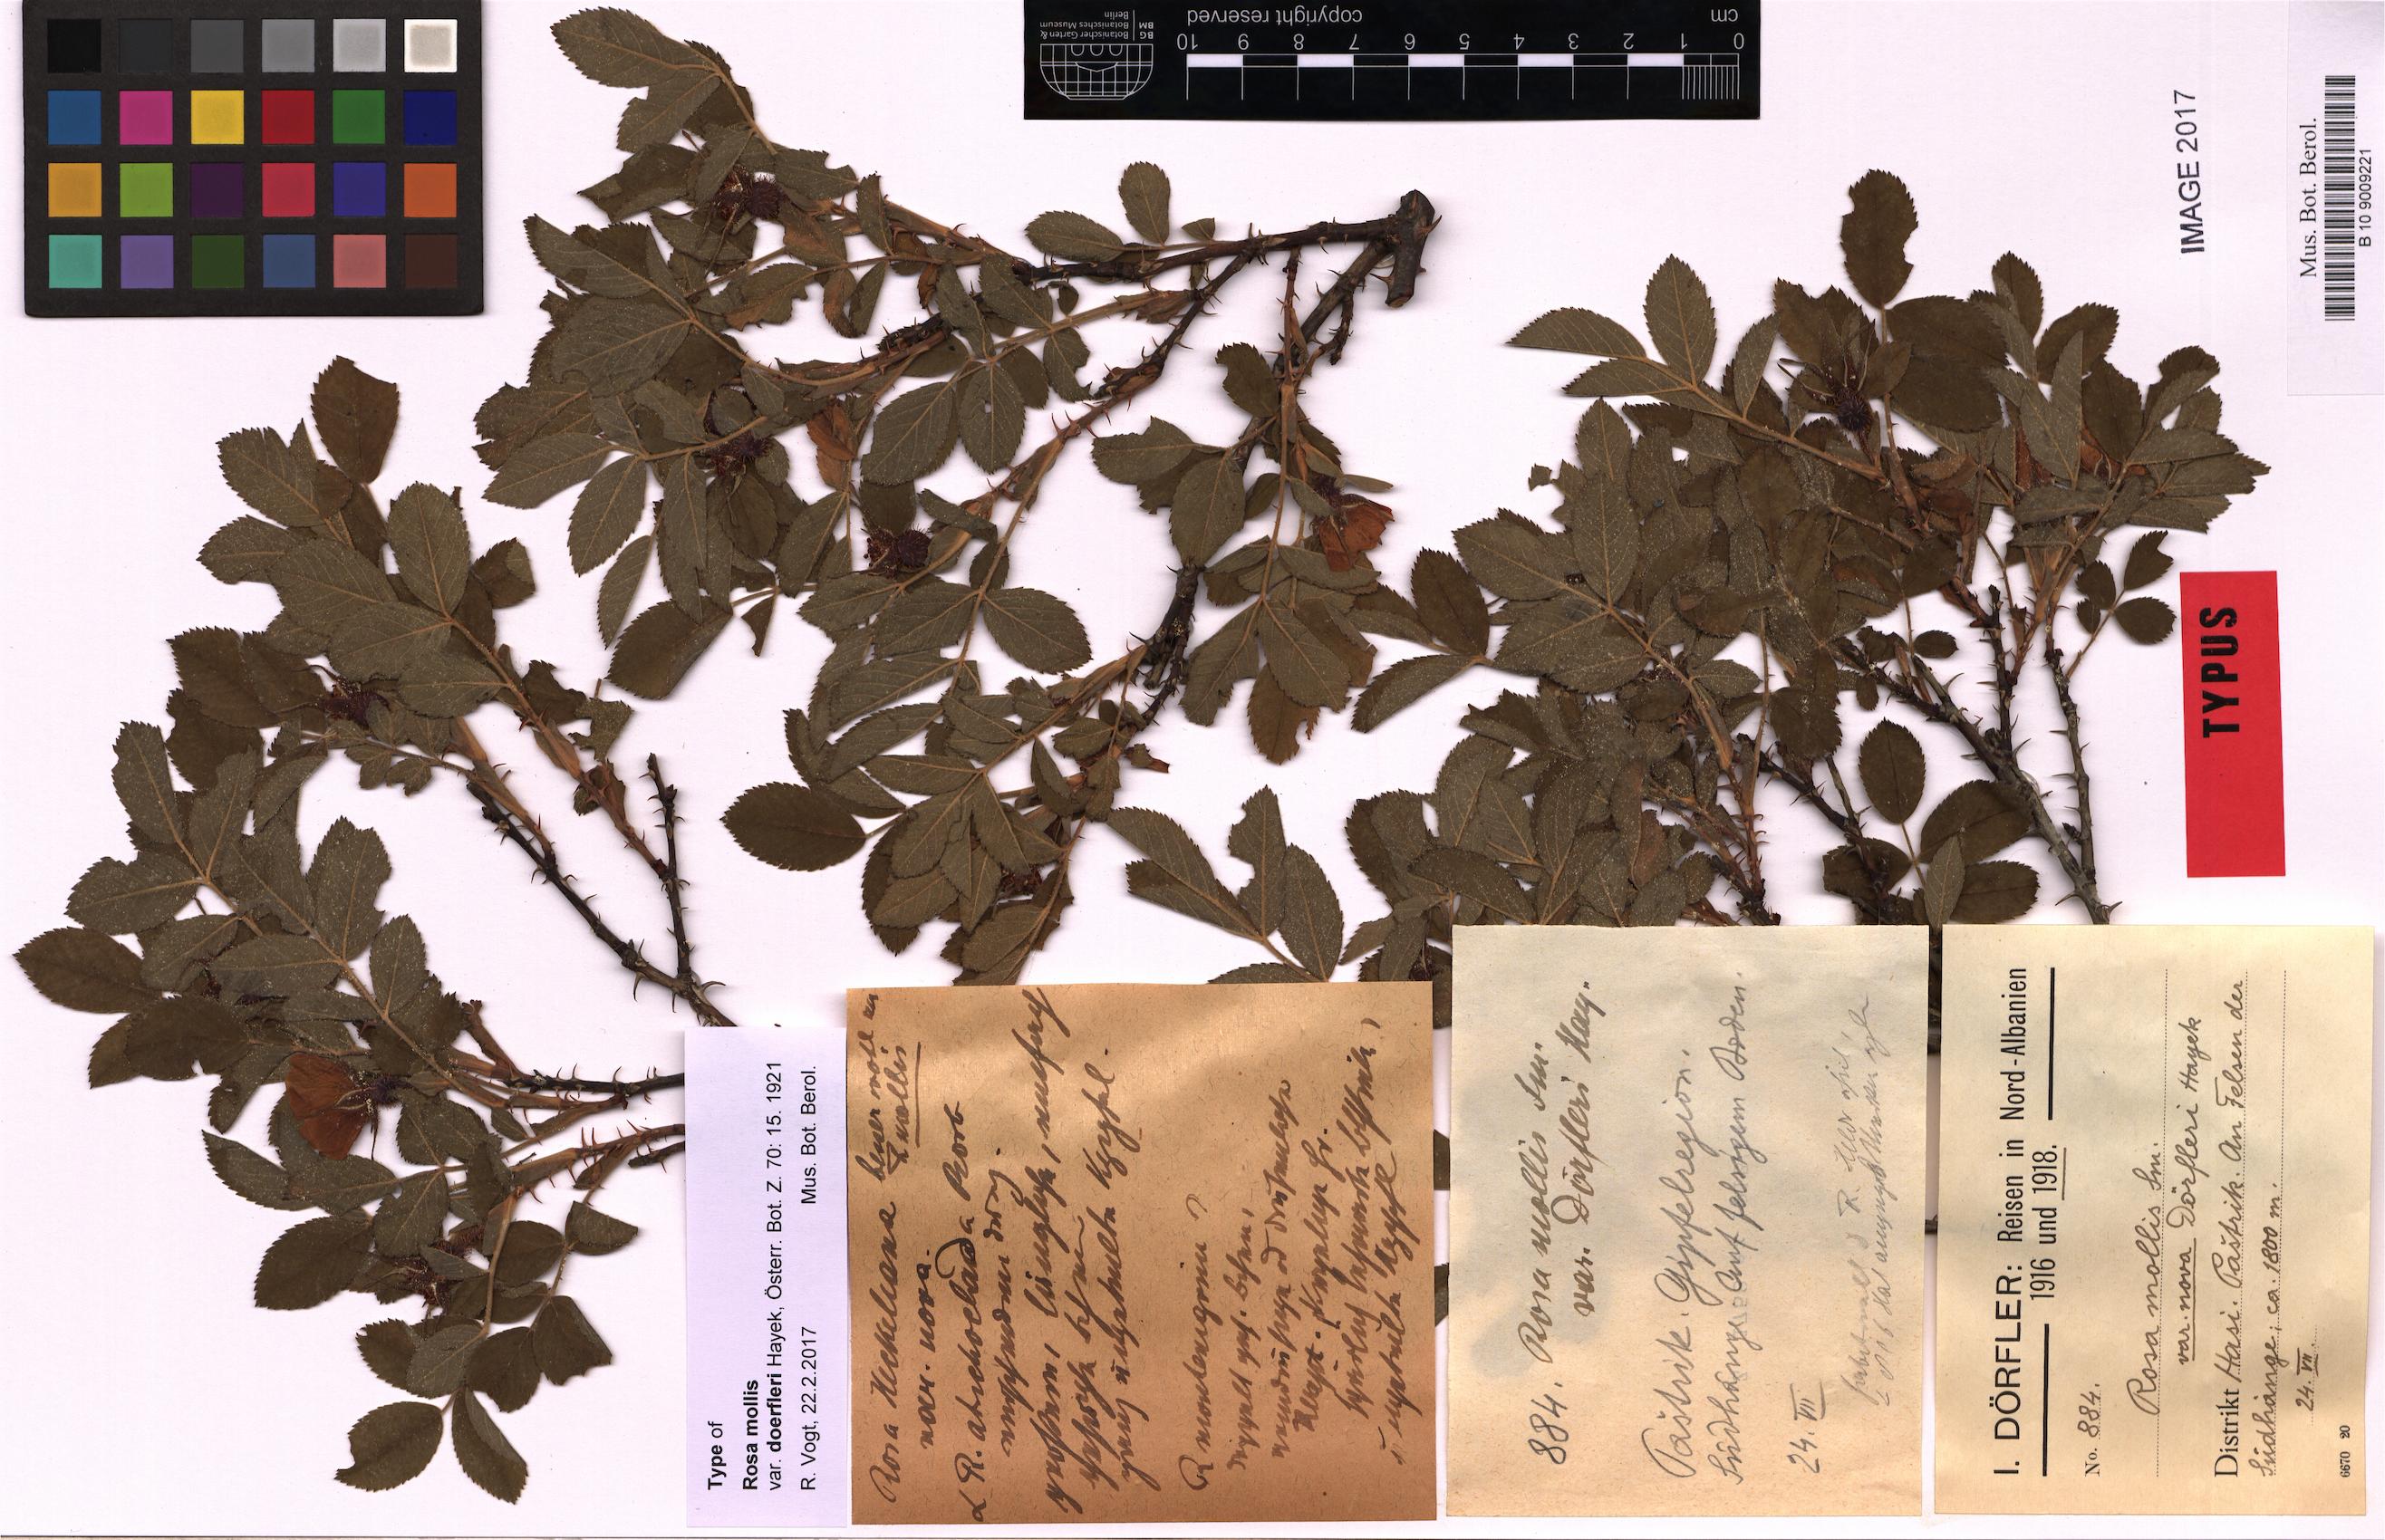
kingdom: Plantae
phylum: Tracheophyta
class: Magnoliopsida
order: Rosales
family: Rosaceae
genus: Rosa
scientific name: Rosa mollis
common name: Rose
